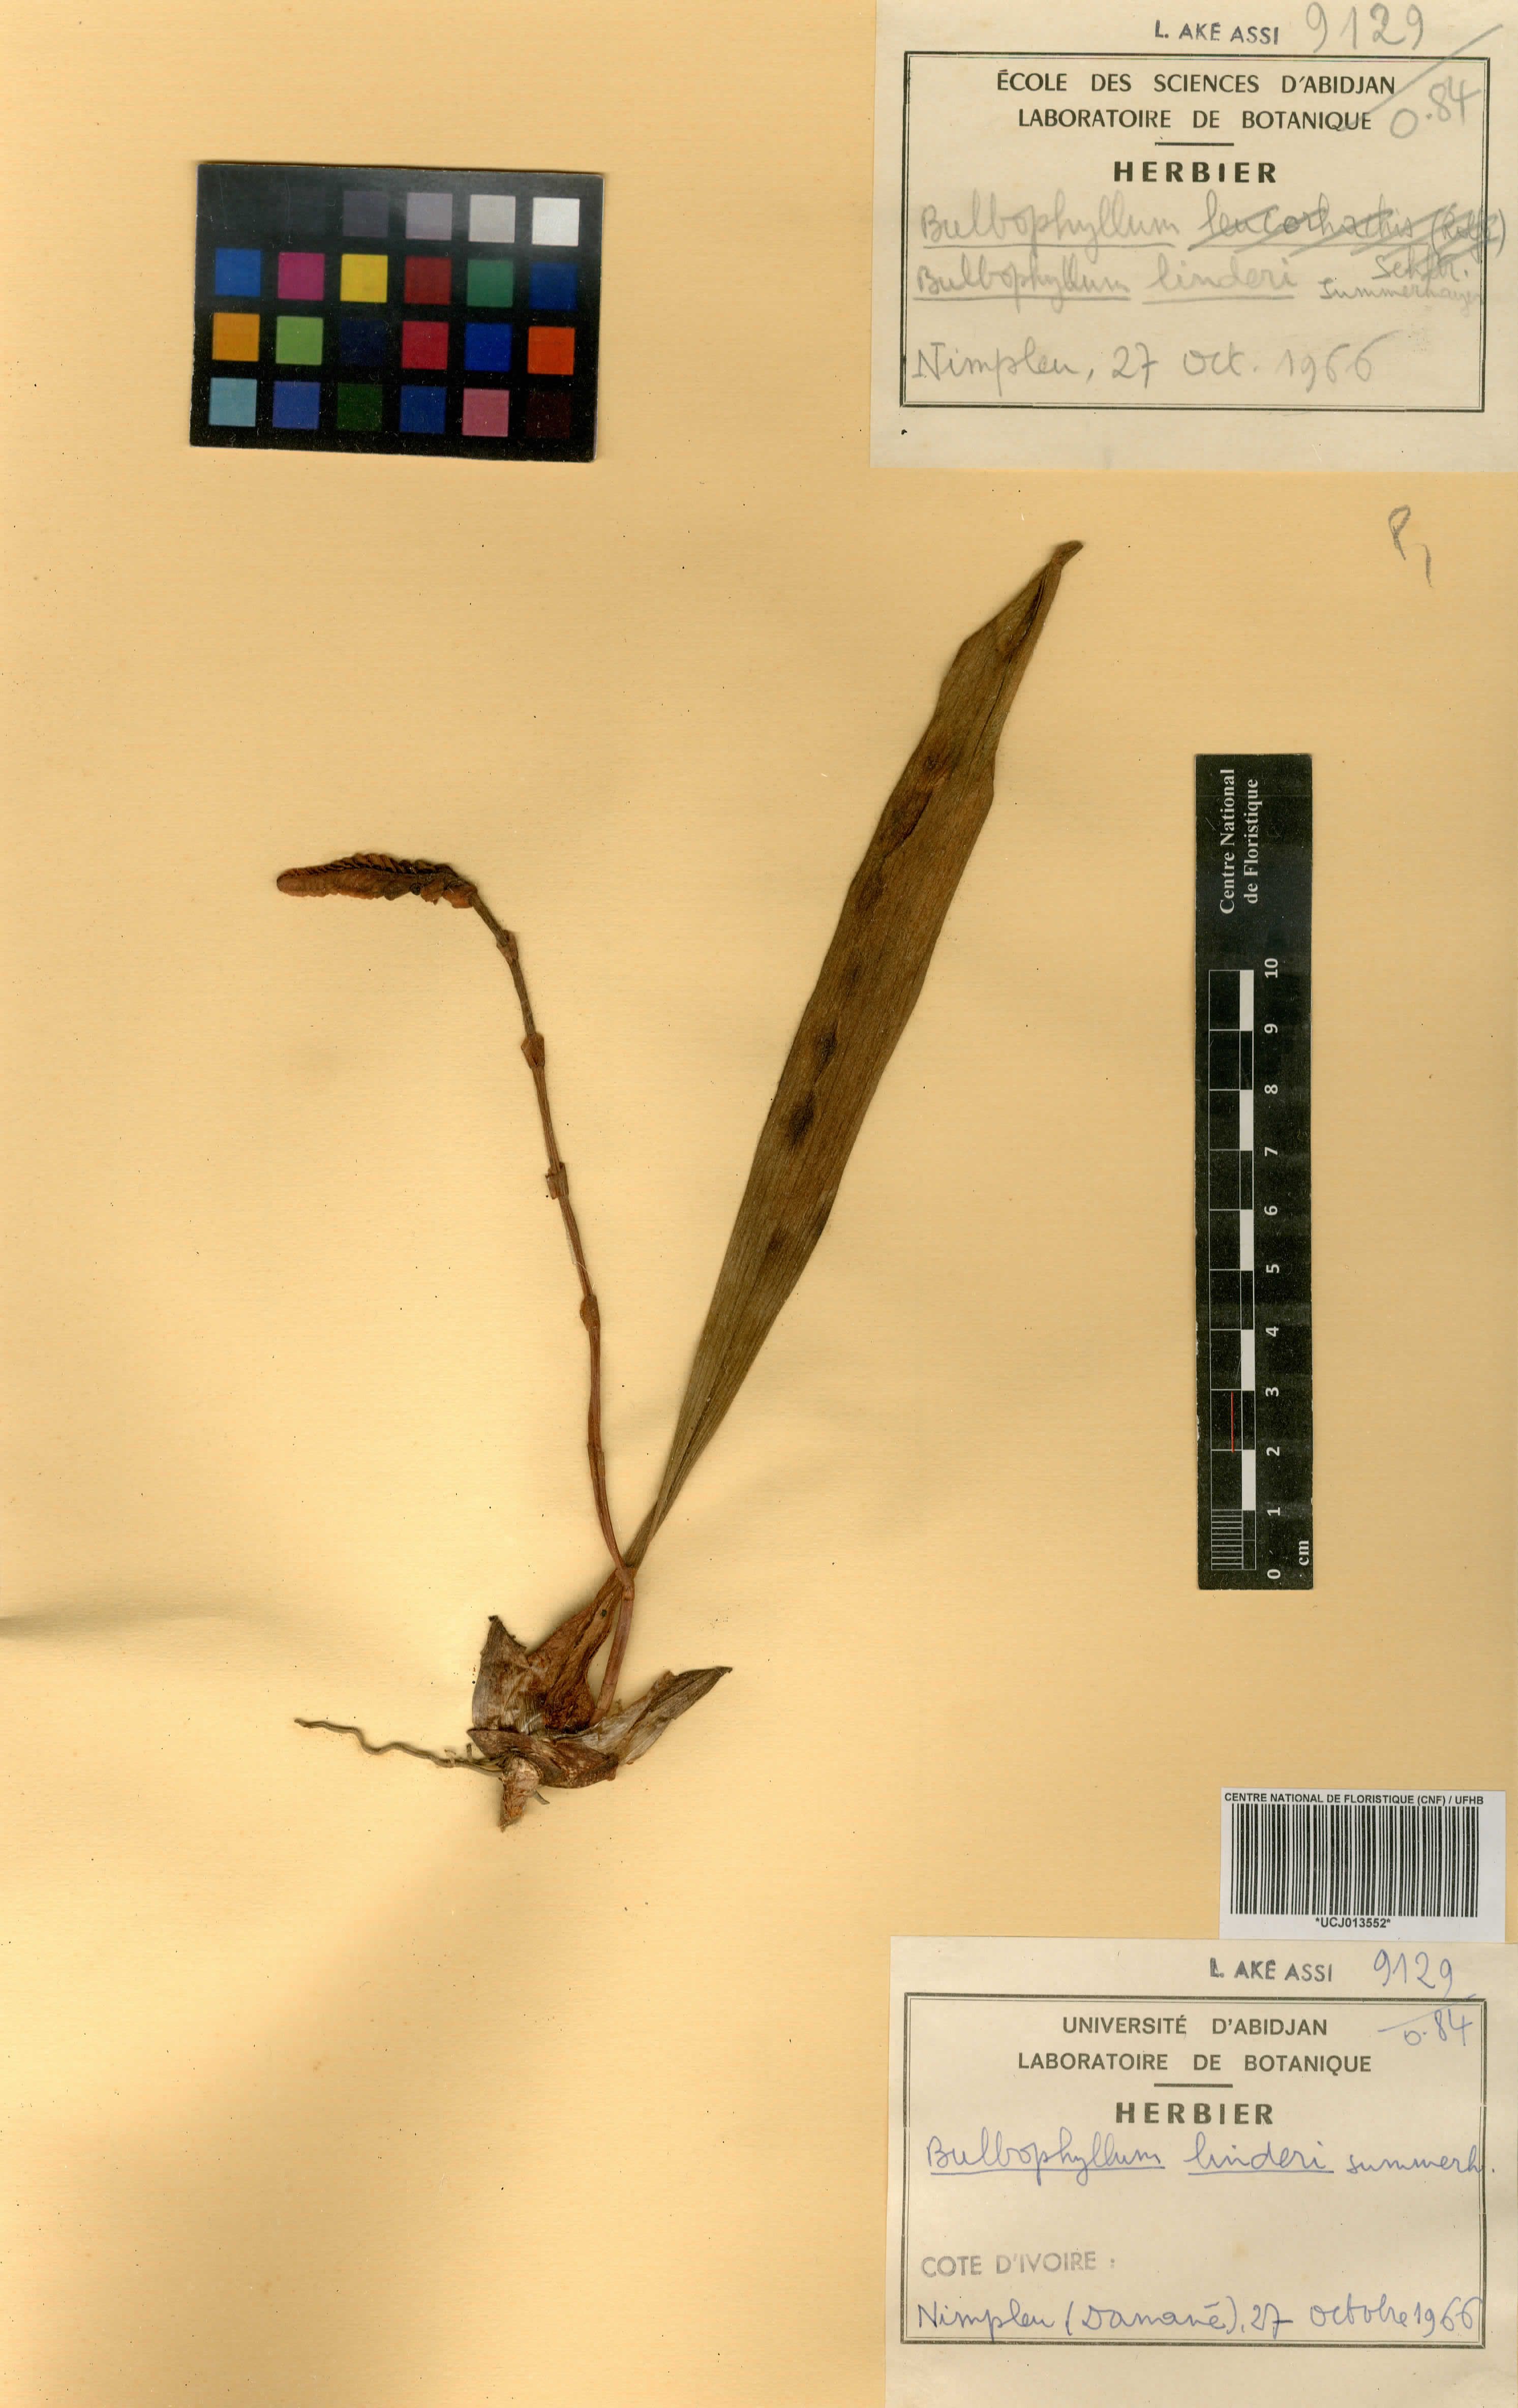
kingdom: Plantae
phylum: Tracheophyta
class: Liliopsida
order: Asparagales
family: Orchidaceae
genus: Bulbophyllum
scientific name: Bulbophyllum leucorhachis
